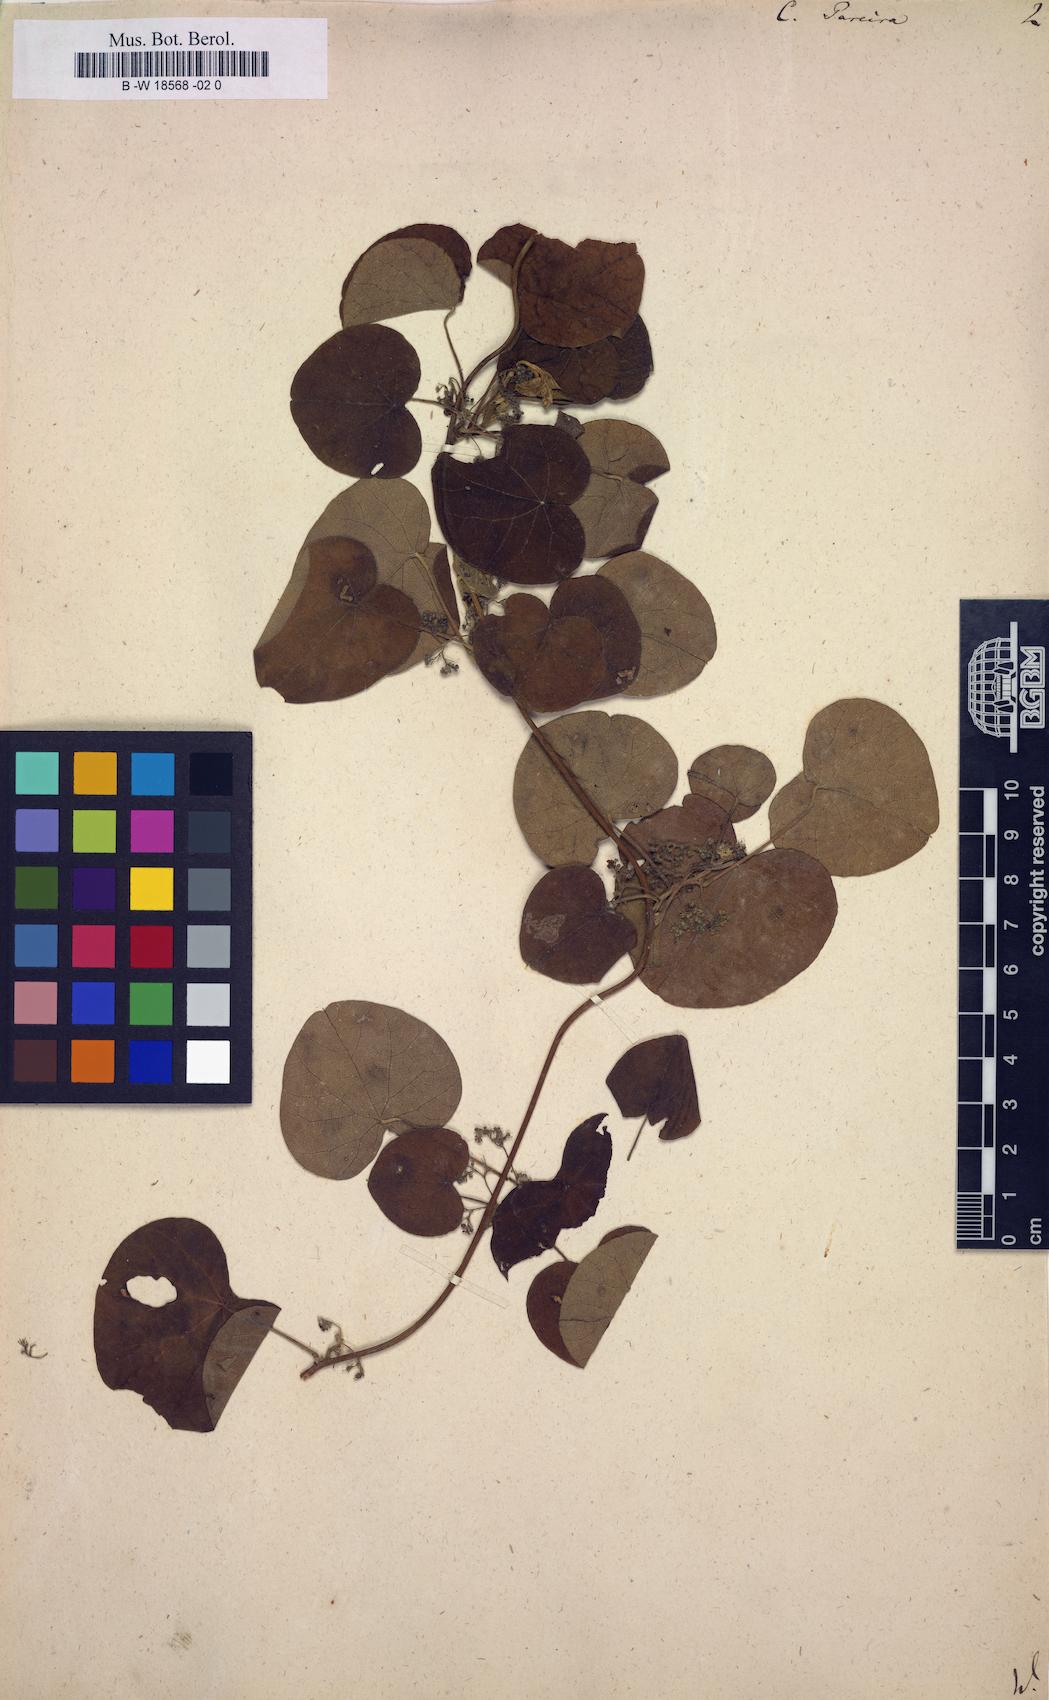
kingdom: Plantae
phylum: Tracheophyta
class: Magnoliopsida
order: Ranunculales
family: Menispermaceae
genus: Cissampelos
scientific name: Cissampelos pareira
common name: Velvetleaf
